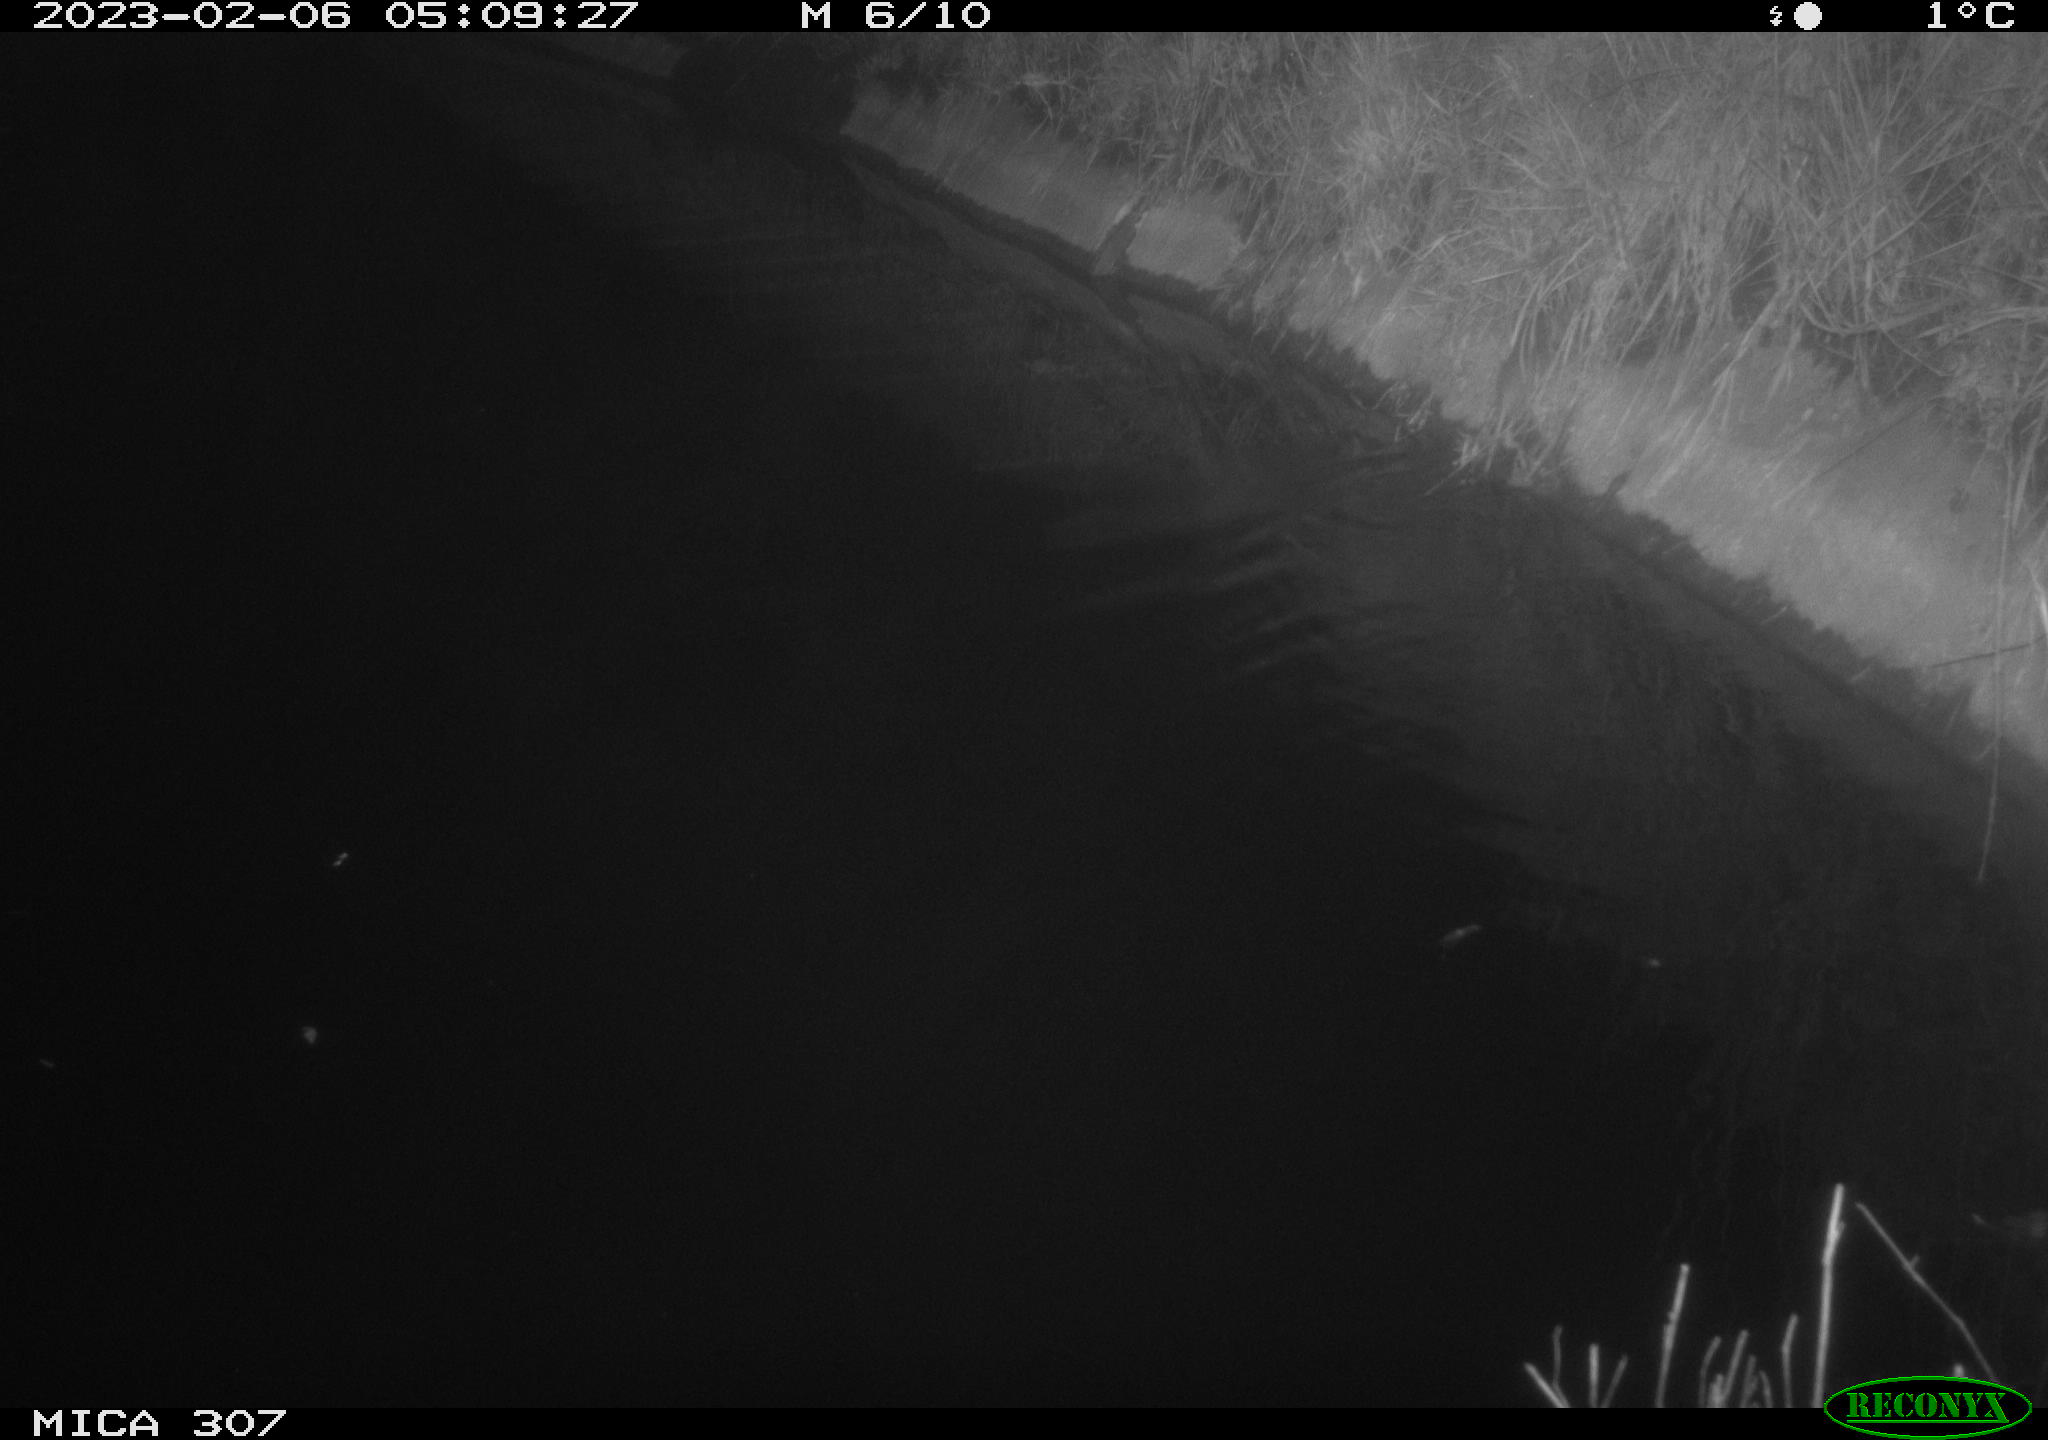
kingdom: Animalia
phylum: Chordata
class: Mammalia
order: Rodentia
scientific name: Rodentia
